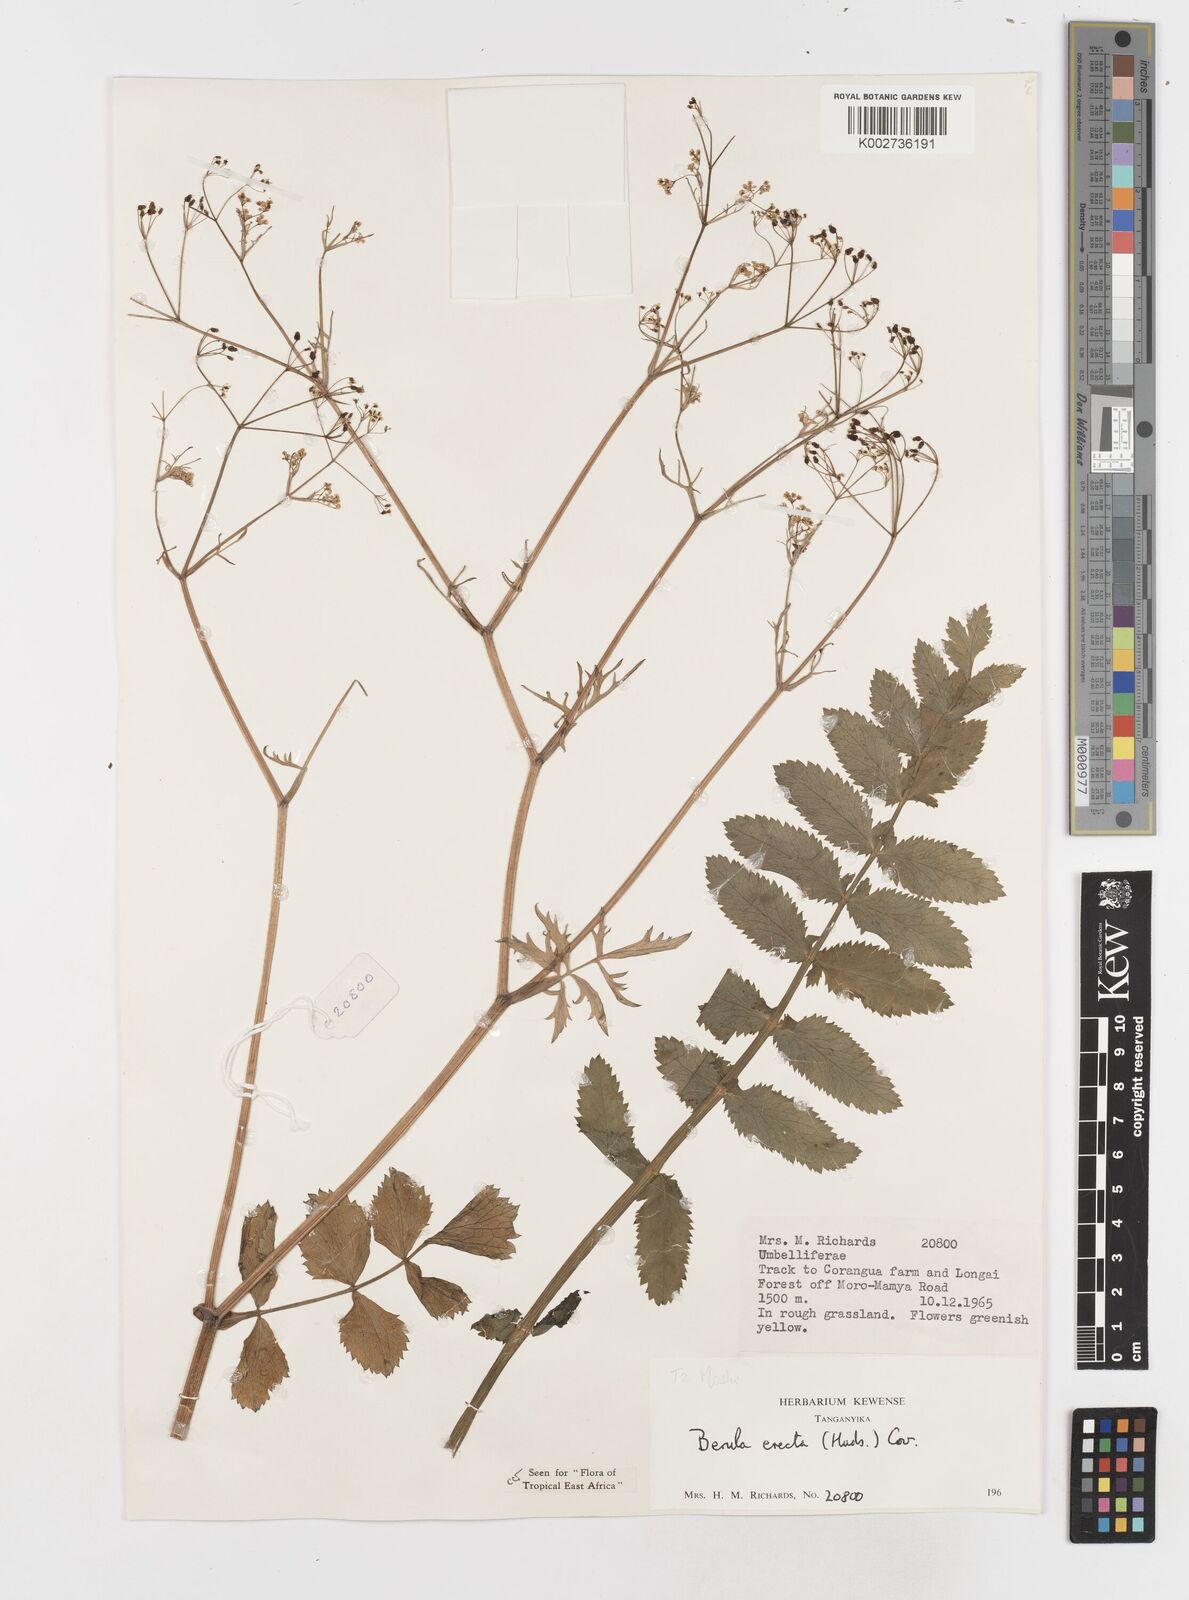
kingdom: Plantae
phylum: Tracheophyta
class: Magnoliopsida
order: Apiales
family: Apiaceae
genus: Berula
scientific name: Berula erecta
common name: Lesser water-parsnip
